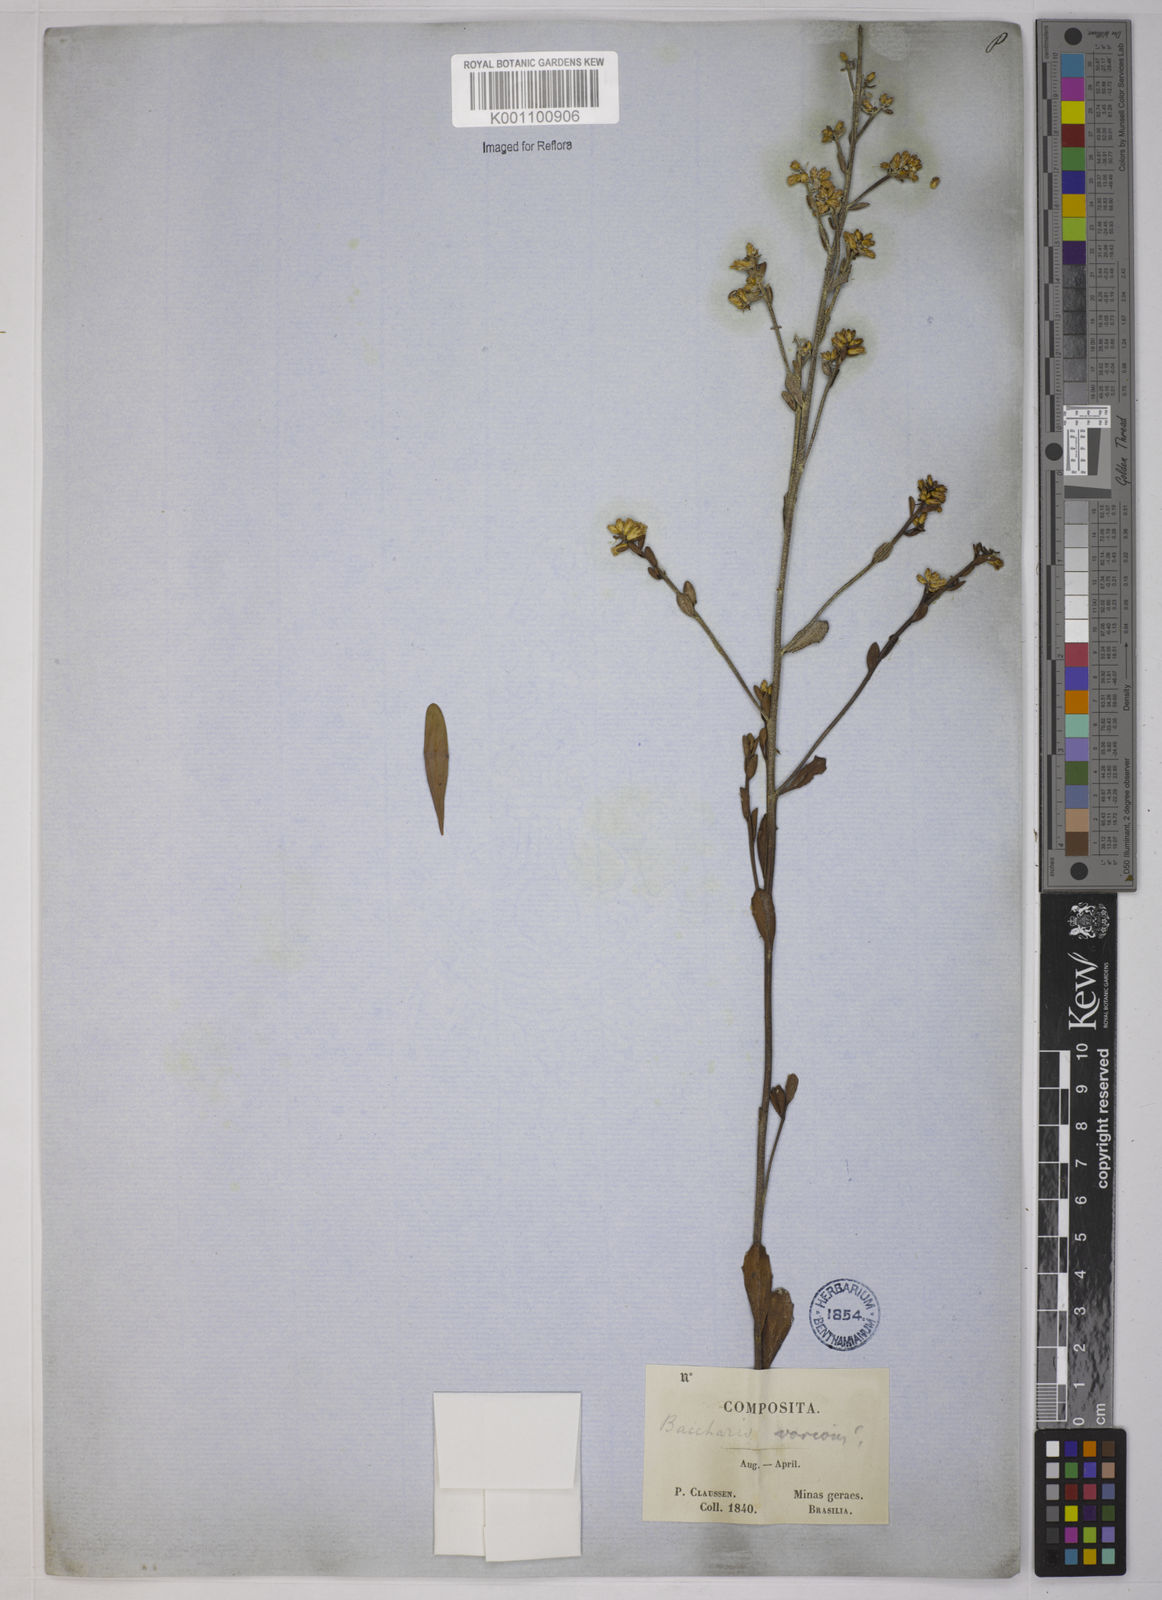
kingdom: Plantae
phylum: Tracheophyta
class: Magnoliopsida
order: Asterales
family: Asteraceae
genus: Baccharis
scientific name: Baccharis subdentata
